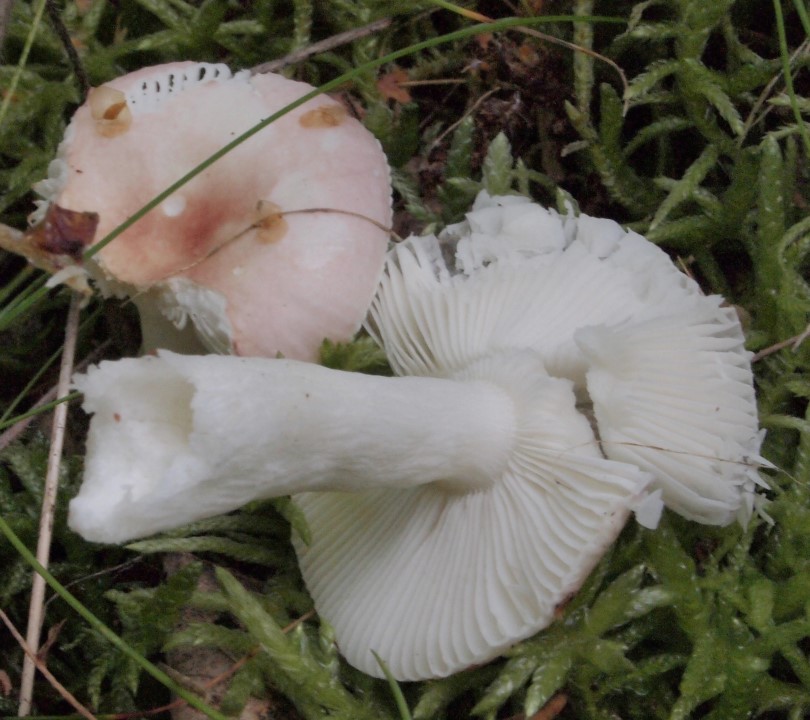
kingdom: Fungi
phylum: Basidiomycota
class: Agaricomycetes
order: Russulales
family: Russulaceae
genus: Russula
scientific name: Russula depallens
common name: falmende skørhat
